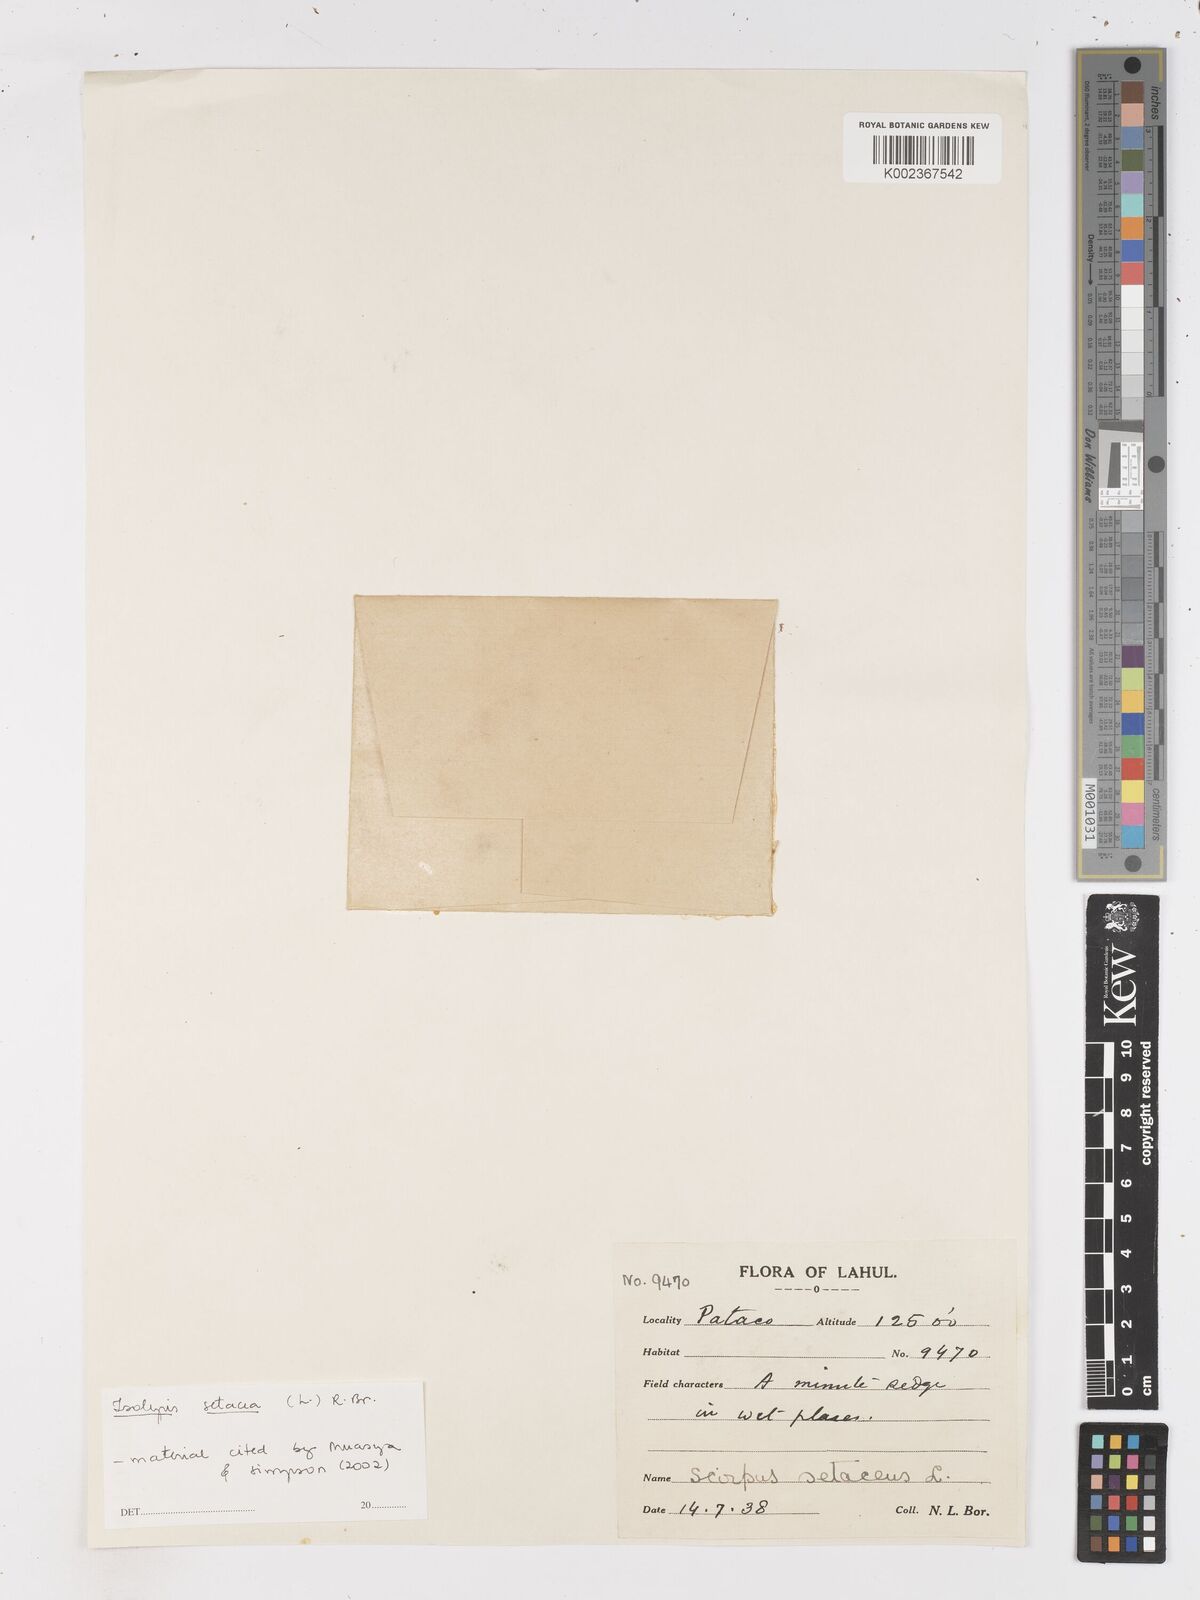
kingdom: Plantae
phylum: Tracheophyta
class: Liliopsida
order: Poales
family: Cyperaceae
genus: Isolepis
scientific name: Isolepis setacea
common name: Bristle club-rush
